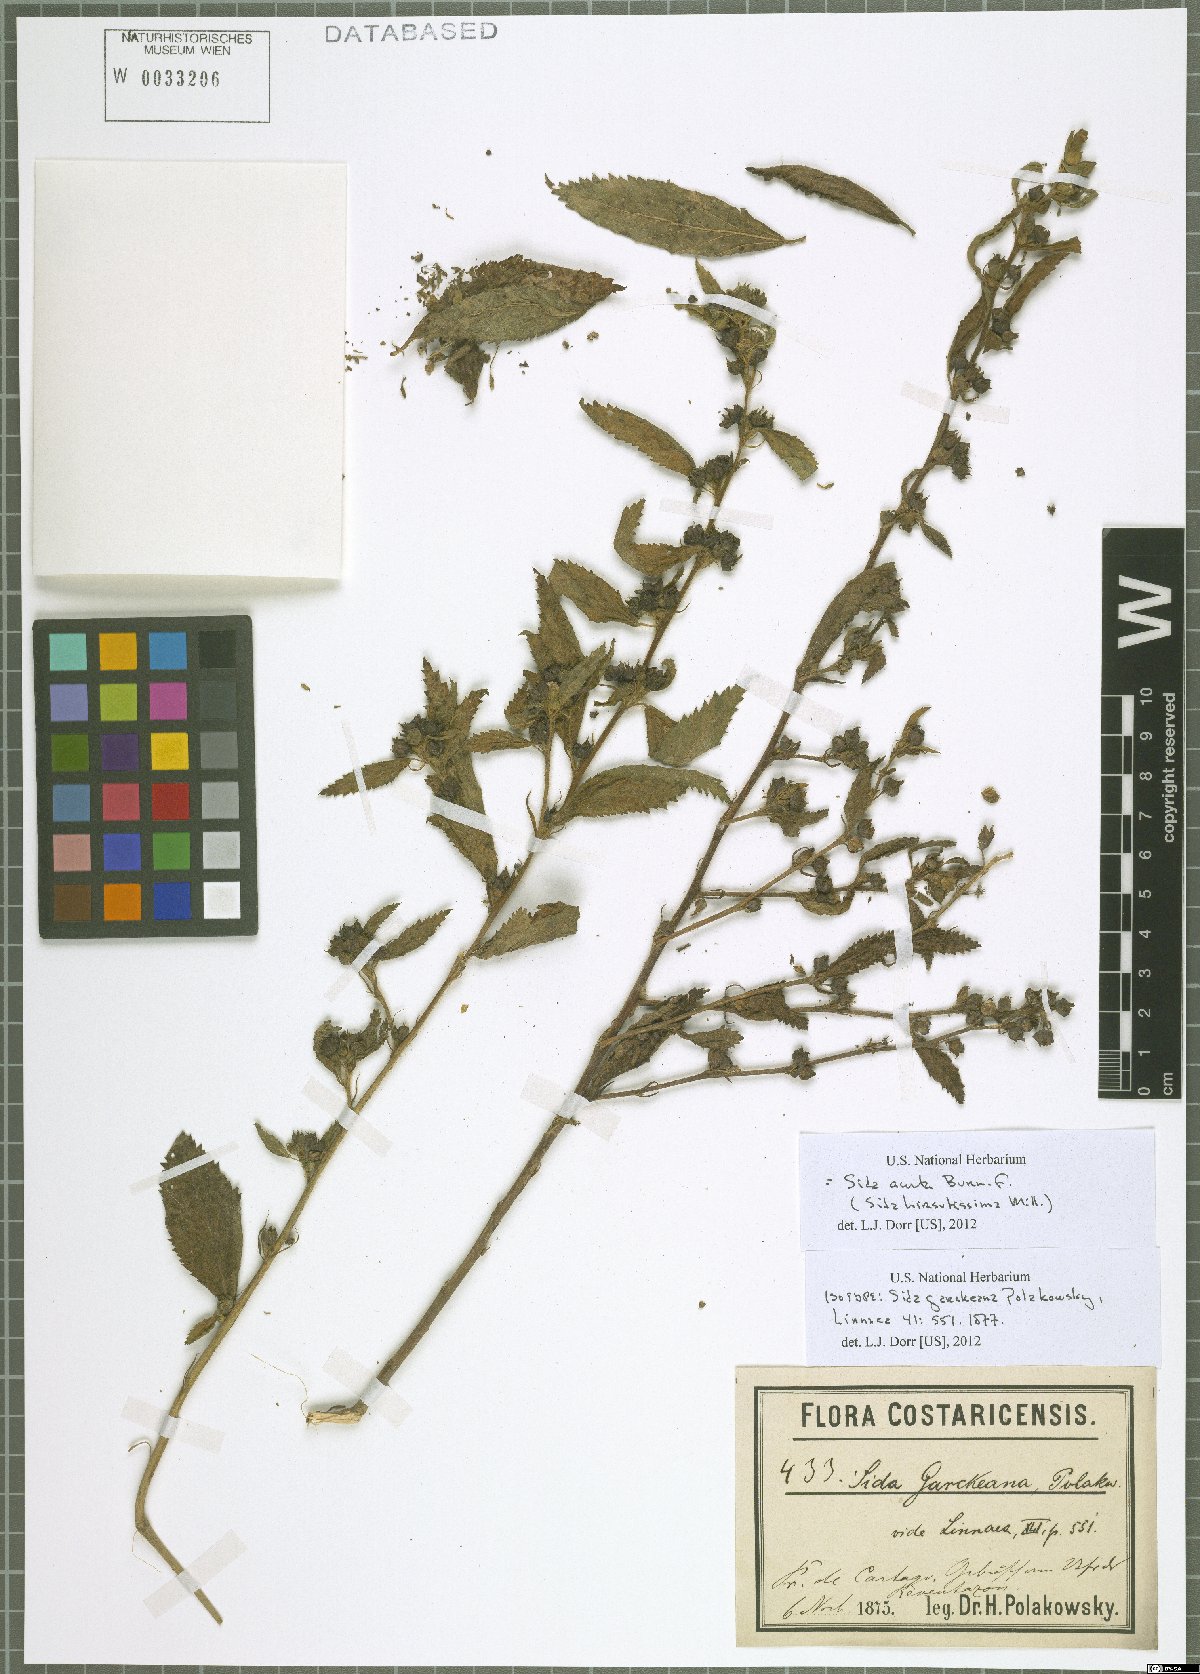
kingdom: Plantae
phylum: Tracheophyta
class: Magnoliopsida
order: Malvales
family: Malvaceae
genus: Sida
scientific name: Sida acuta
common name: Common wireweed
